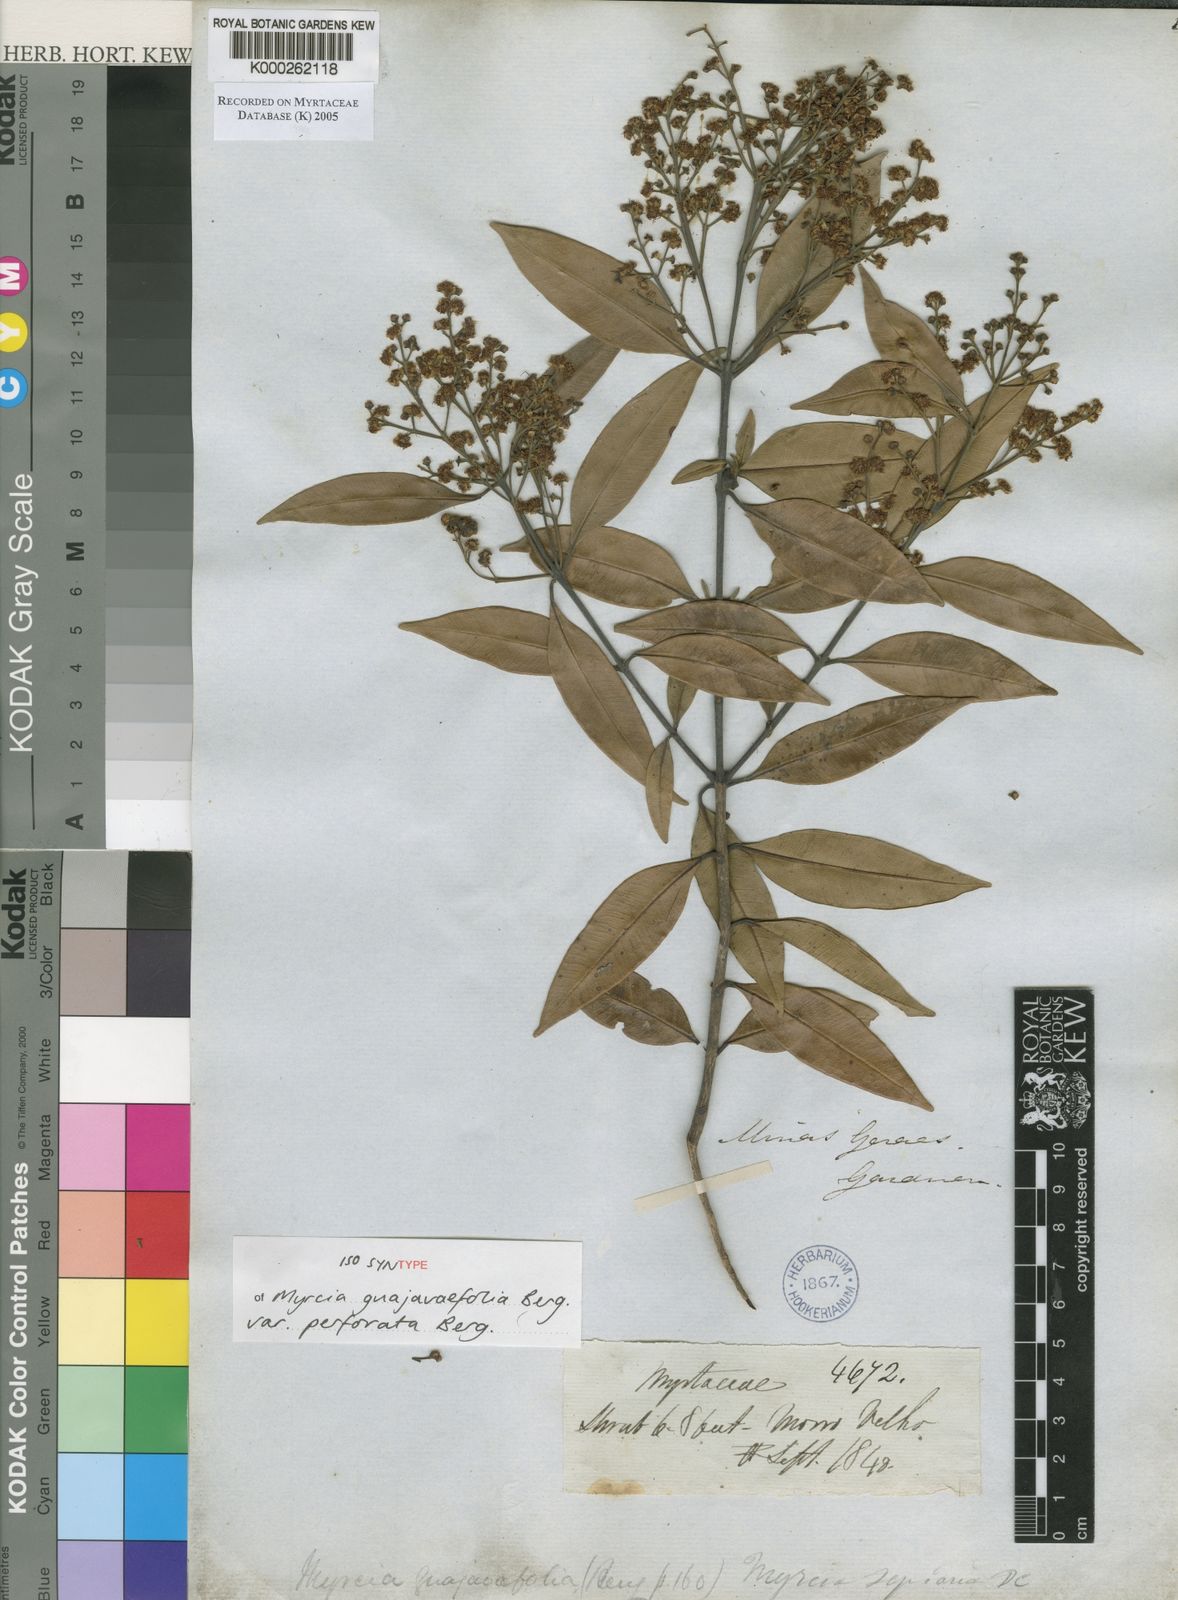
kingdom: Plantae
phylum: Tracheophyta
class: Magnoliopsida
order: Myrtales
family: Myrtaceae
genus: Myrcia
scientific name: Myrcia splendens
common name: Surinam cherry
